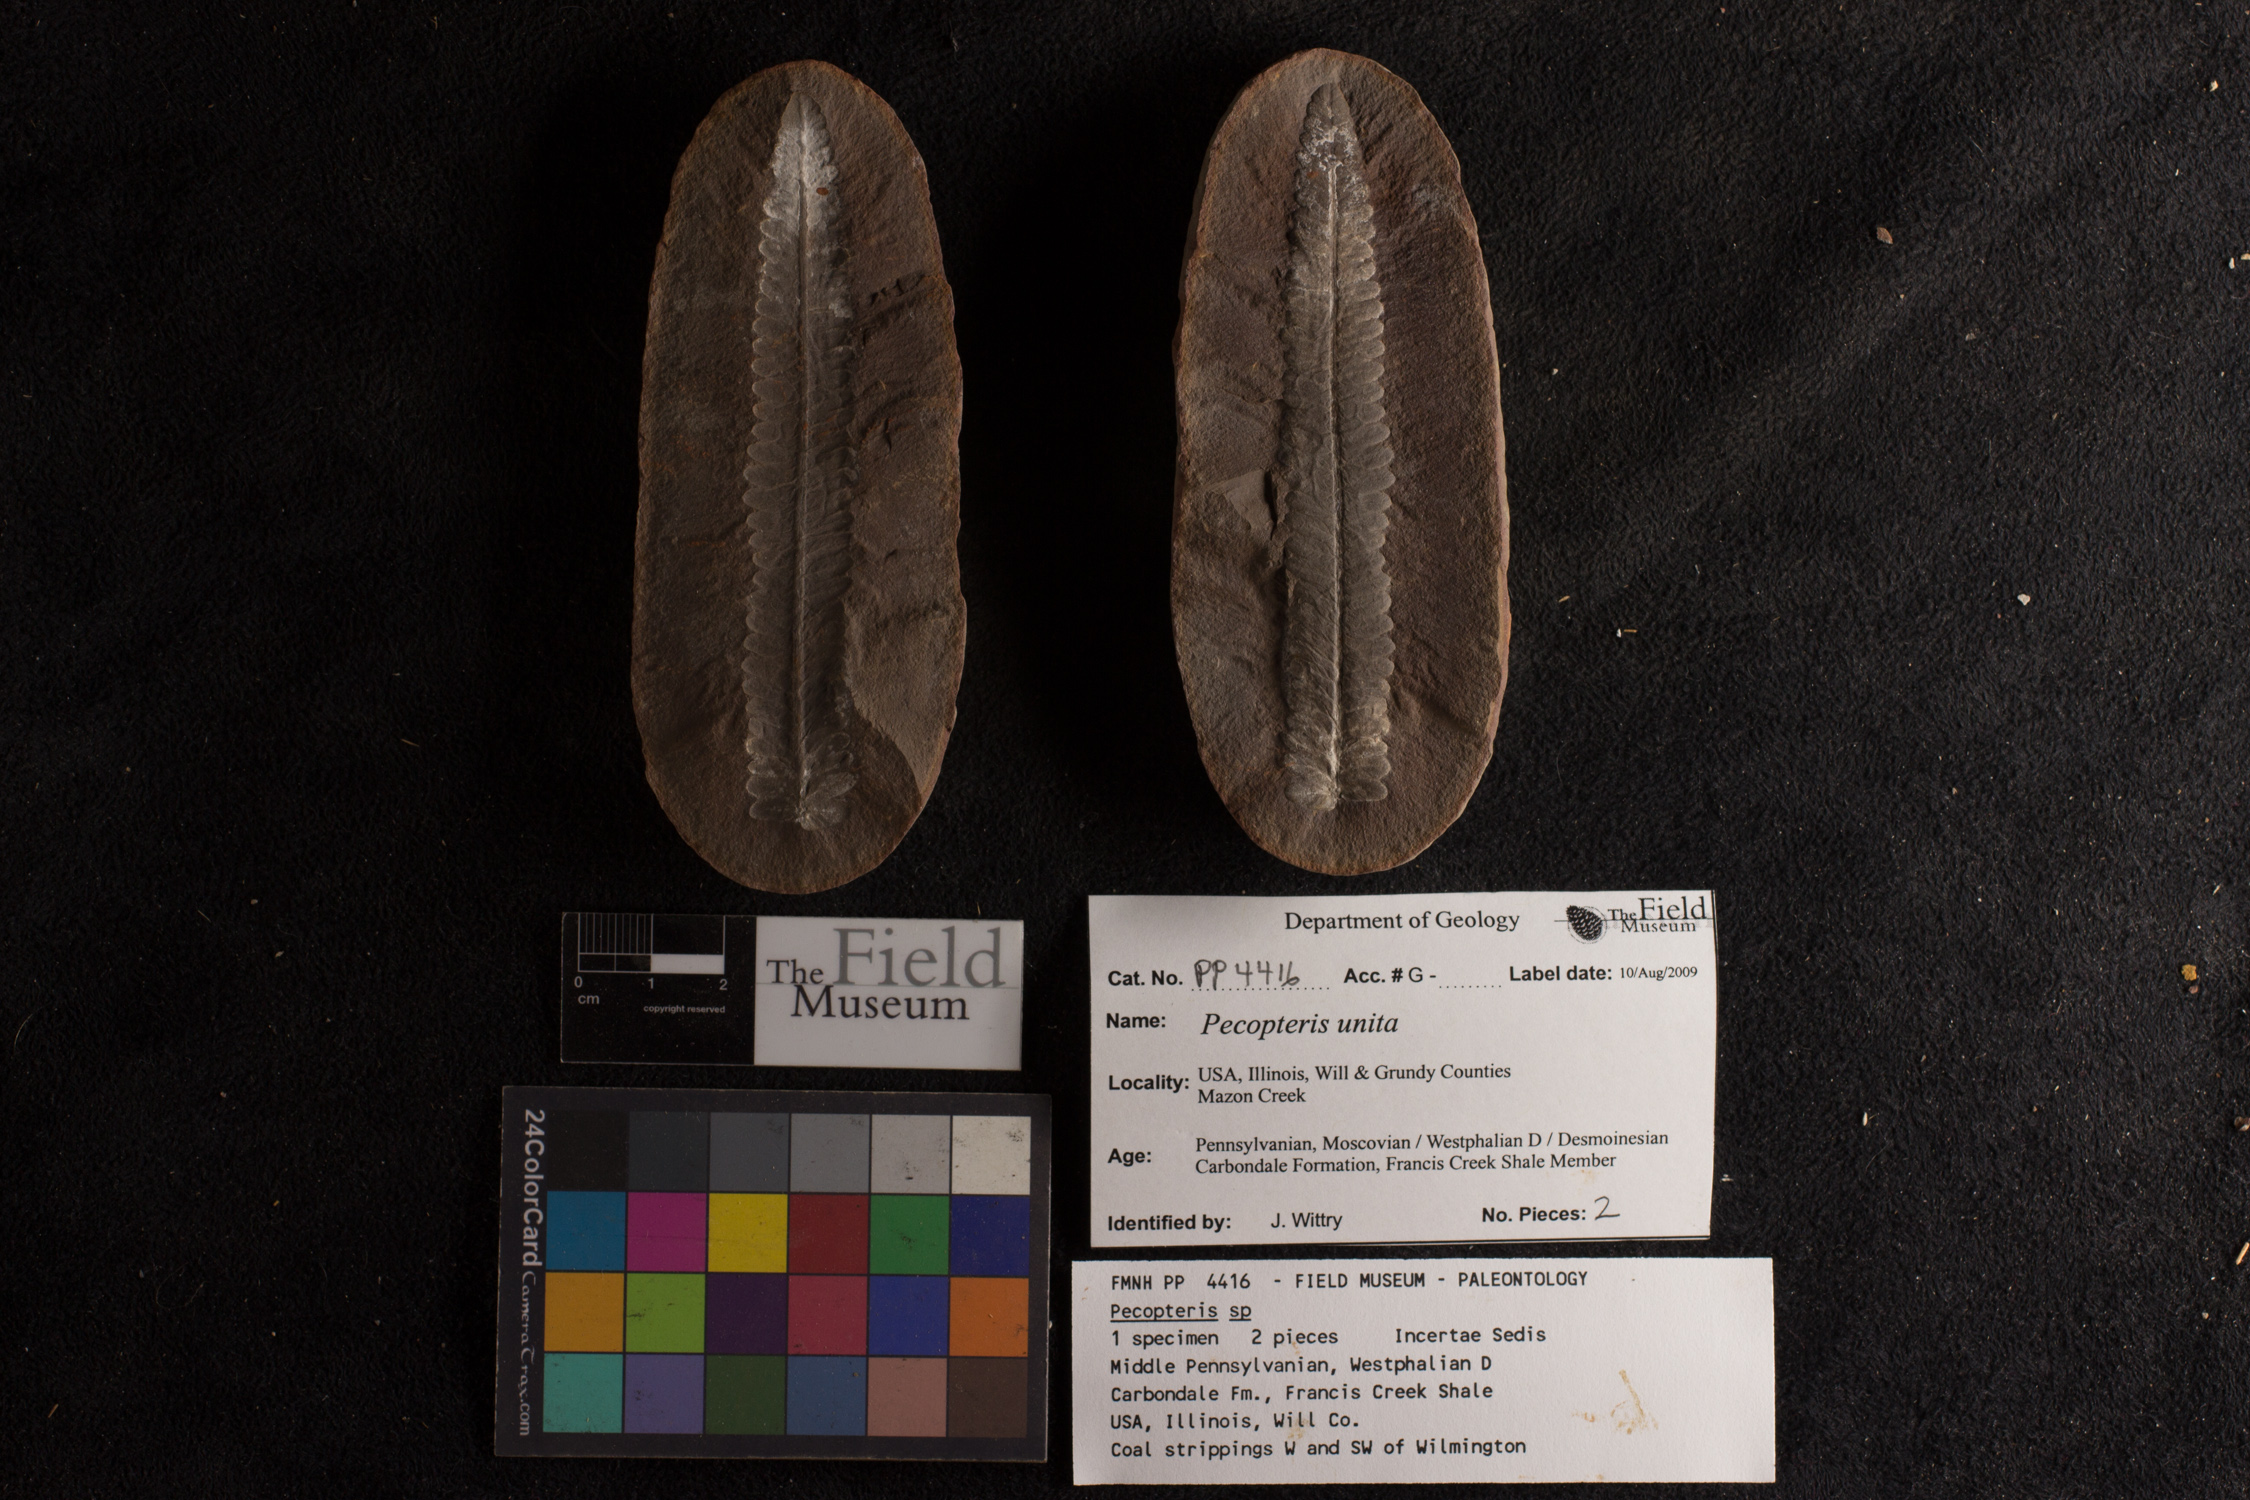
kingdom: Plantae
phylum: Tracheophyta
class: Polypodiopsida
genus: Diplazites
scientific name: Diplazites
